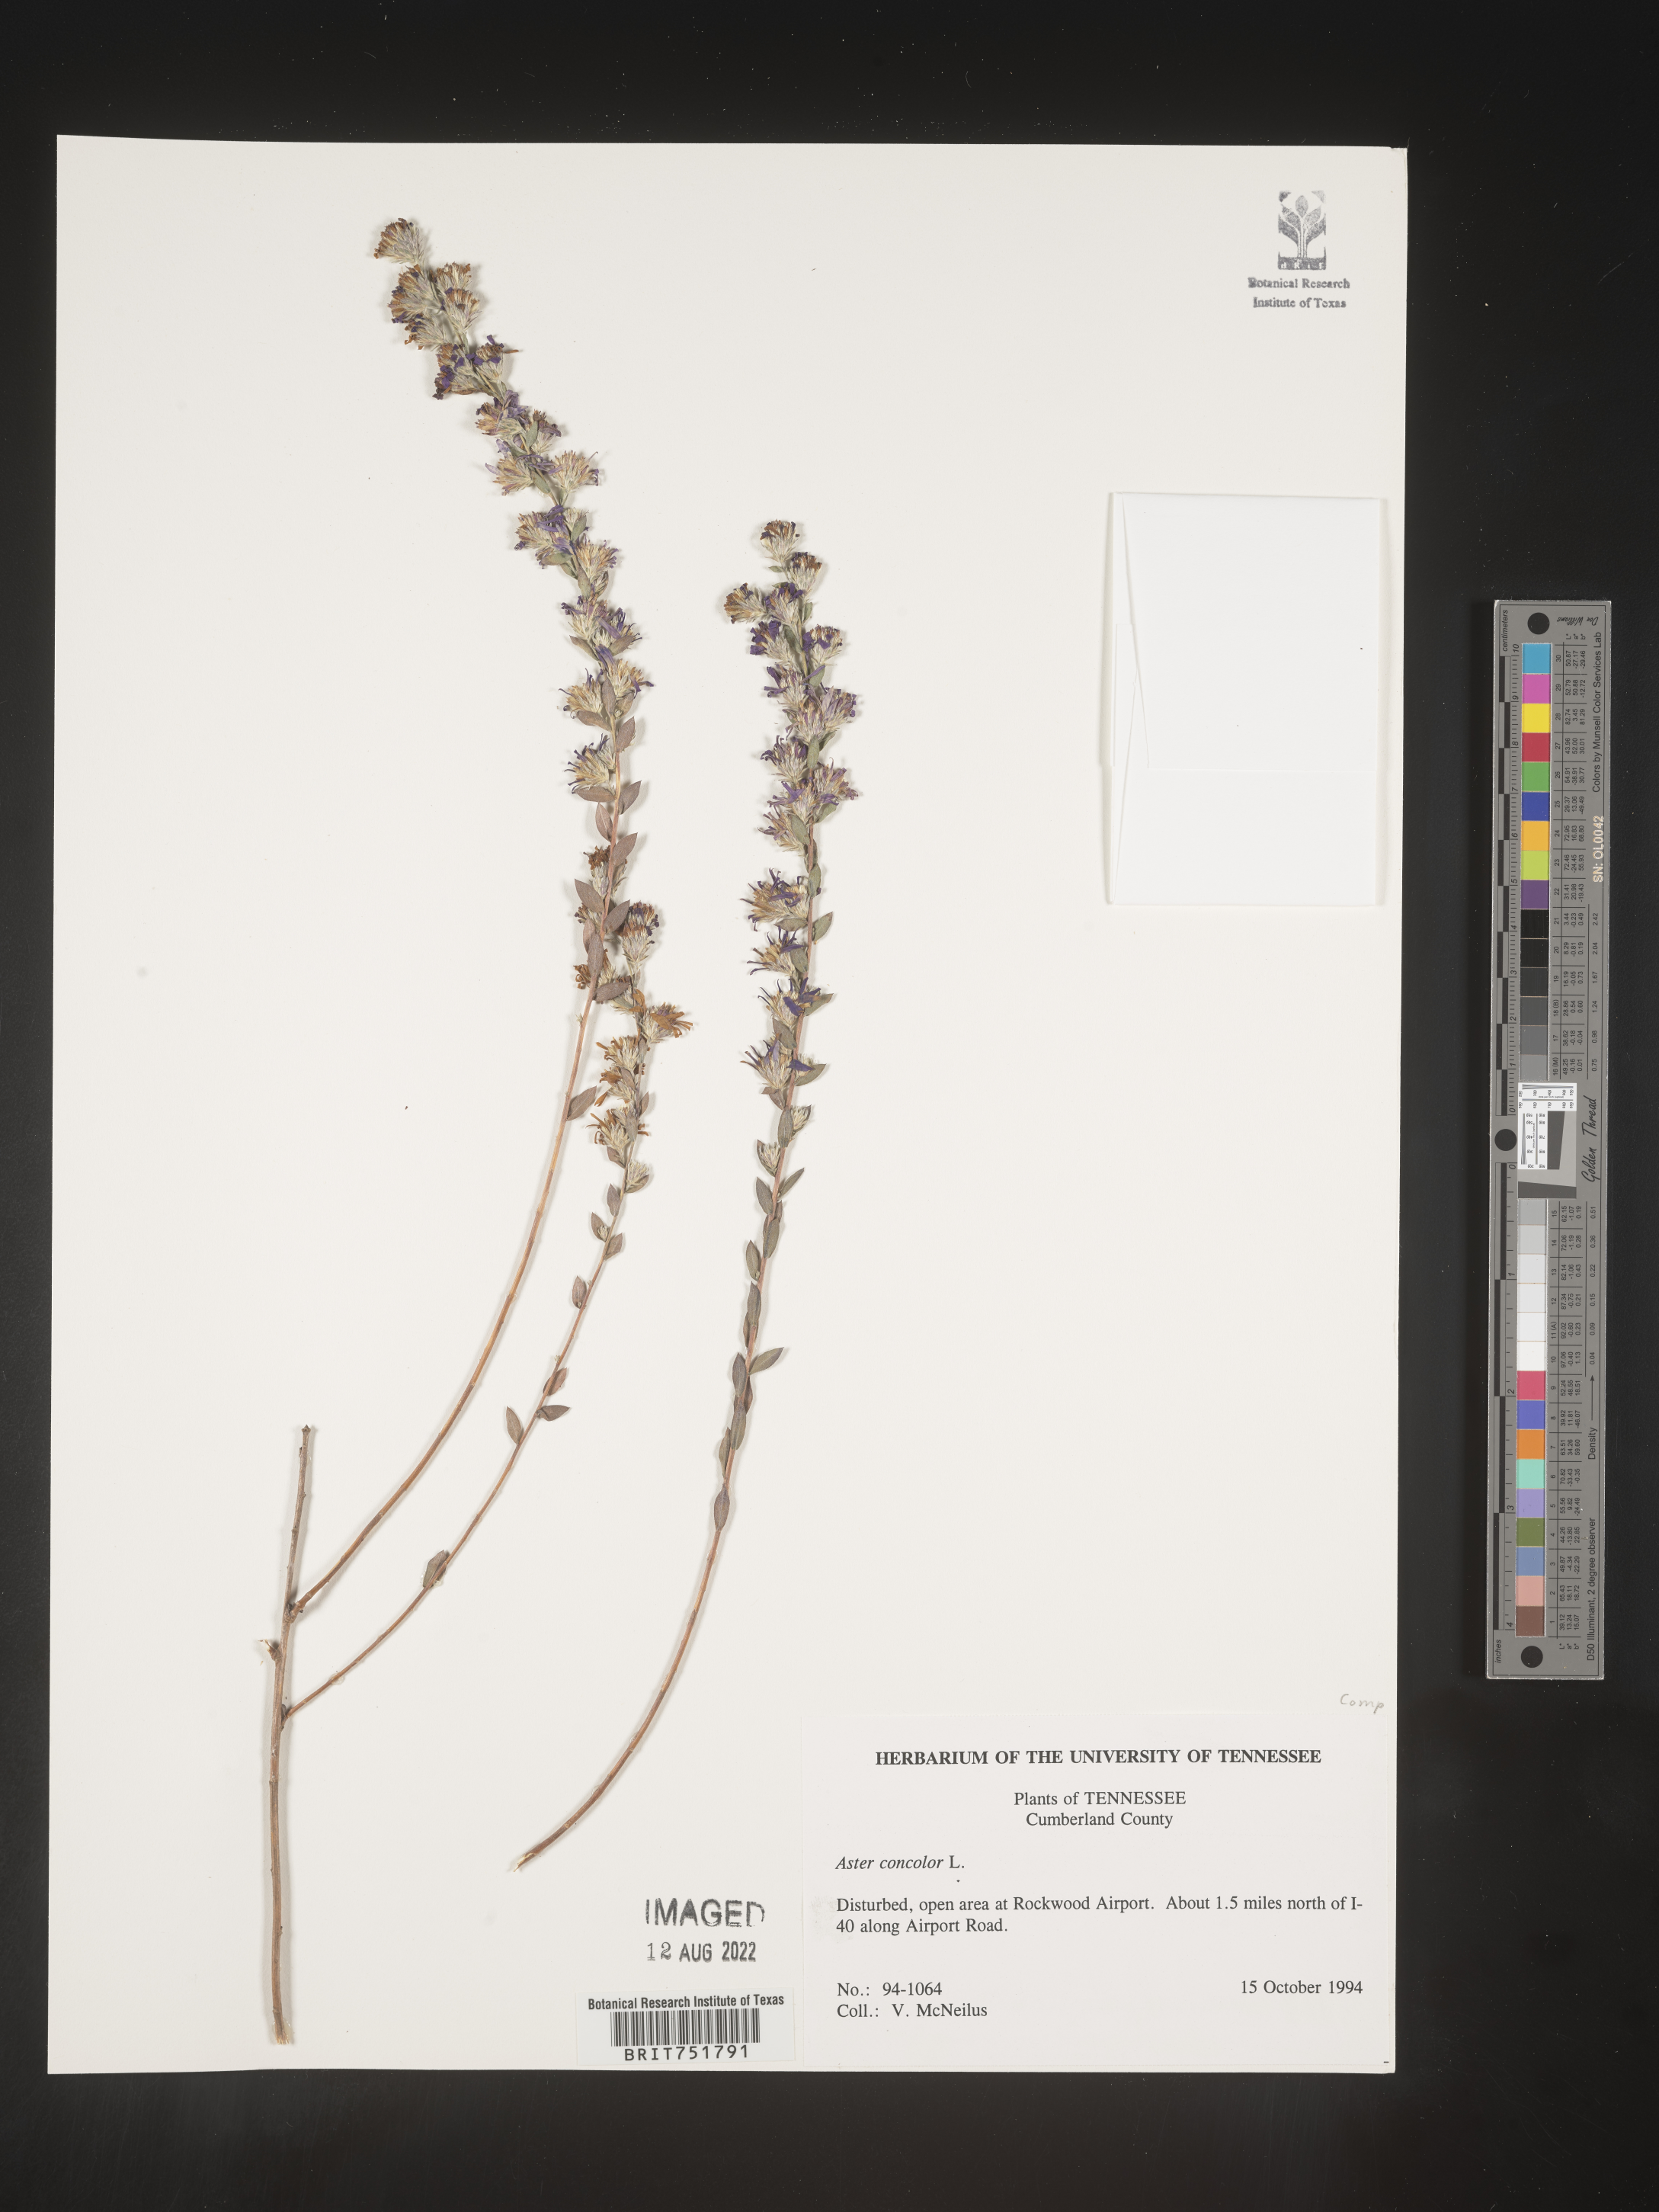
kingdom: Plantae
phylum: Tracheophyta
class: Magnoliopsida
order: Asterales
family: Asteraceae
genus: Symphyotrichum
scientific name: Symphyotrichum concolor
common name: Eastern silver aster
